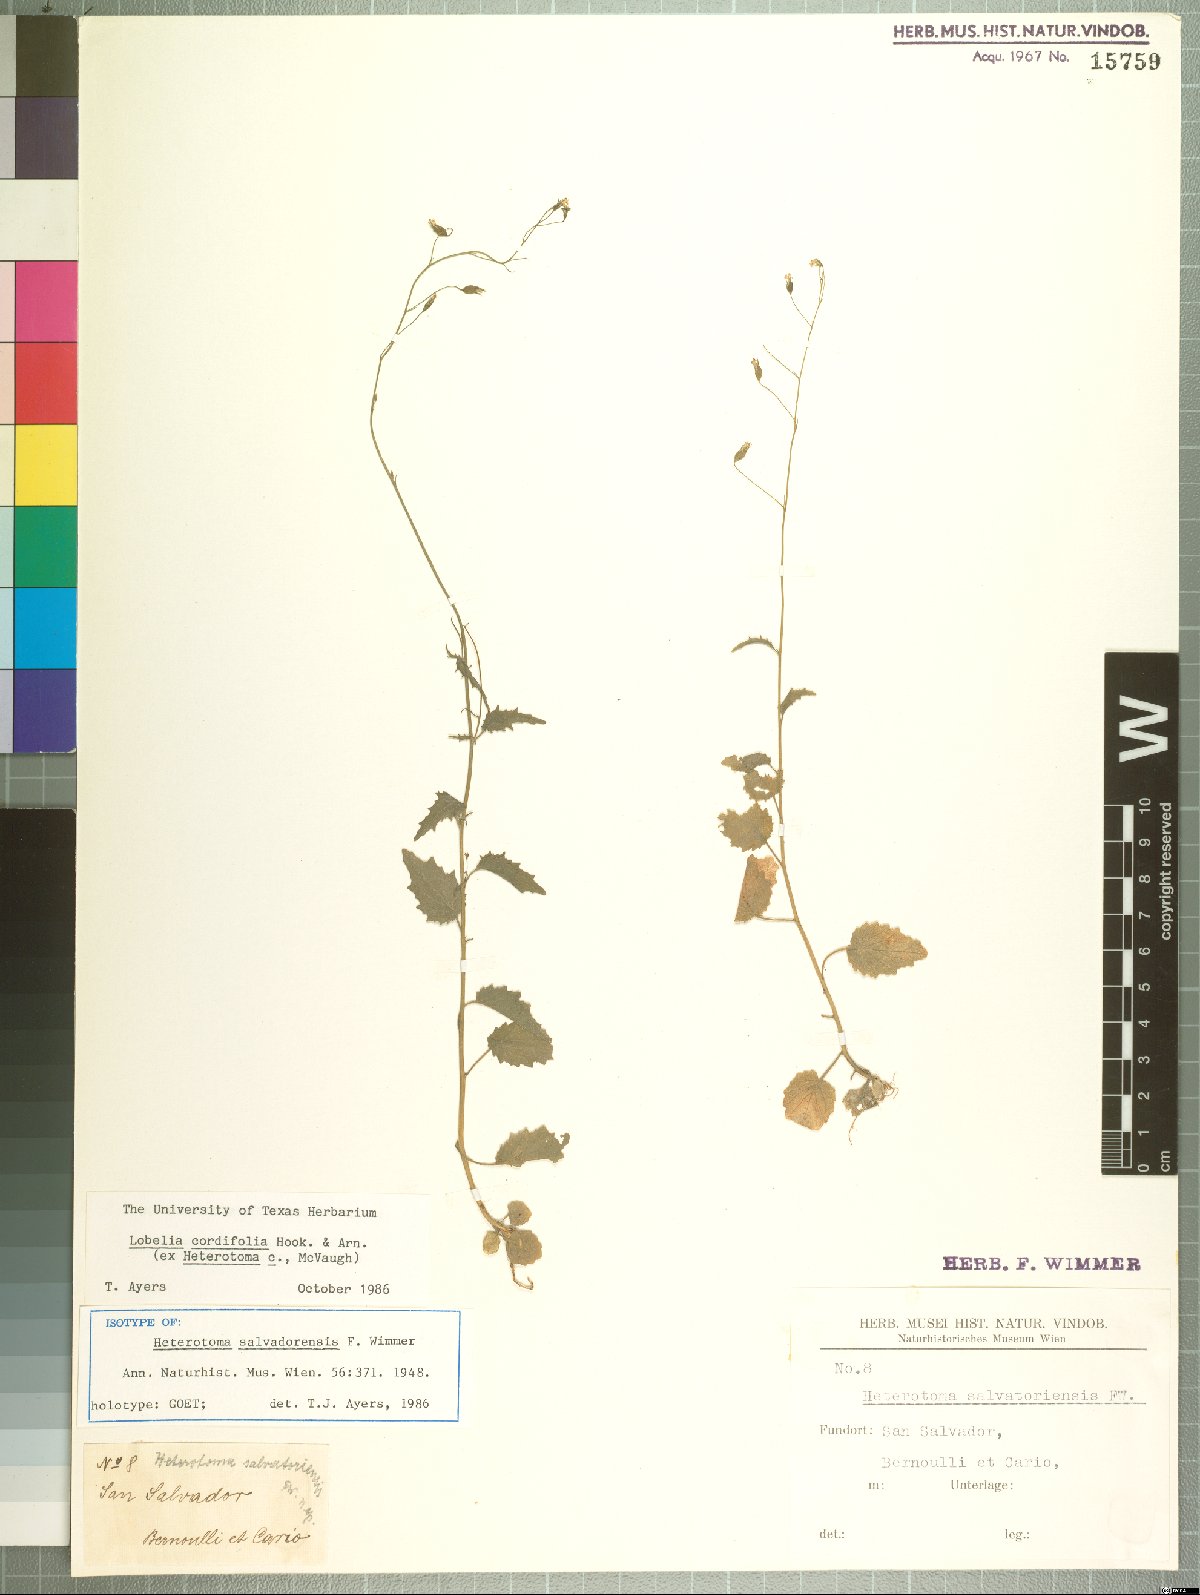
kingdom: Plantae
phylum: Tracheophyta
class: Magnoliopsida
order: Asterales
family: Campanulaceae
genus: Lobelia
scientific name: Lobelia cordifolia
